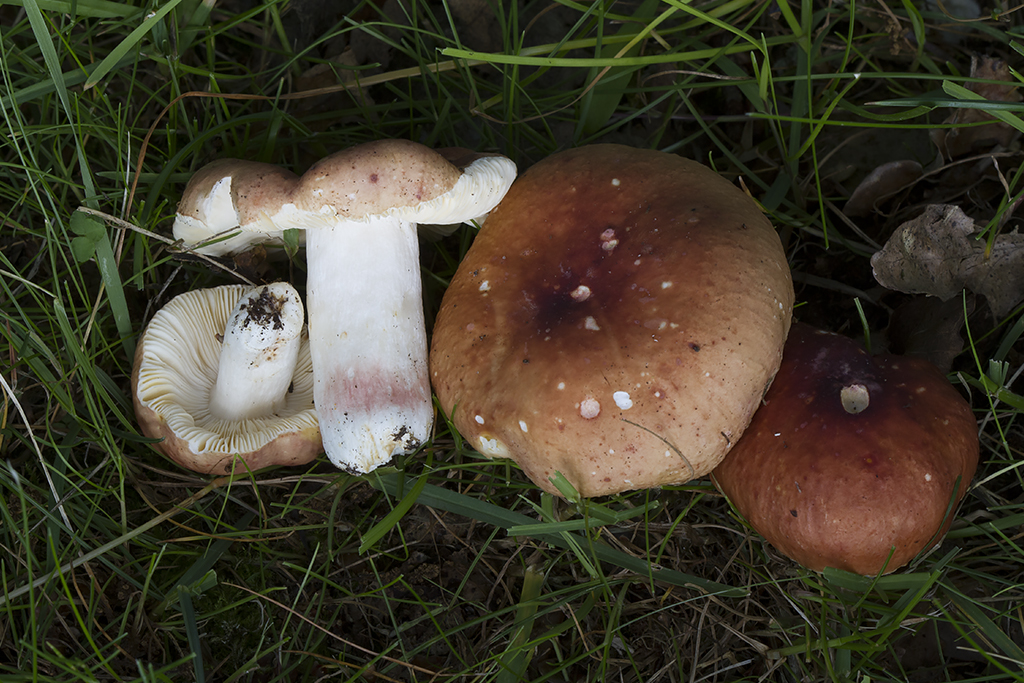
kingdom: Fungi
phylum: Basidiomycota
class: Agaricomycetes
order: Russulales
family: Russulaceae
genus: Russula
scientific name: Russula fontqueri
